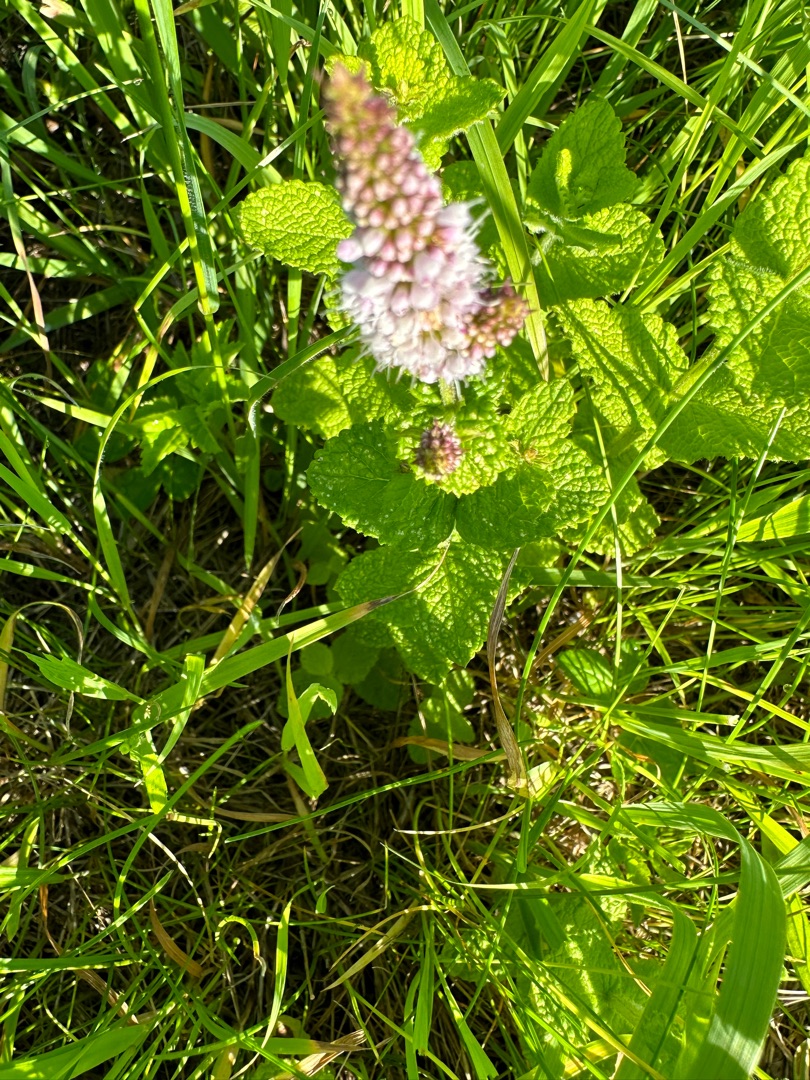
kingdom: Plantae
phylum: Tracheophyta
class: Magnoliopsida
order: Lamiales
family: Lamiaceae
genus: Mentha
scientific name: Mentha suaveolens
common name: Rundbladet mynte
